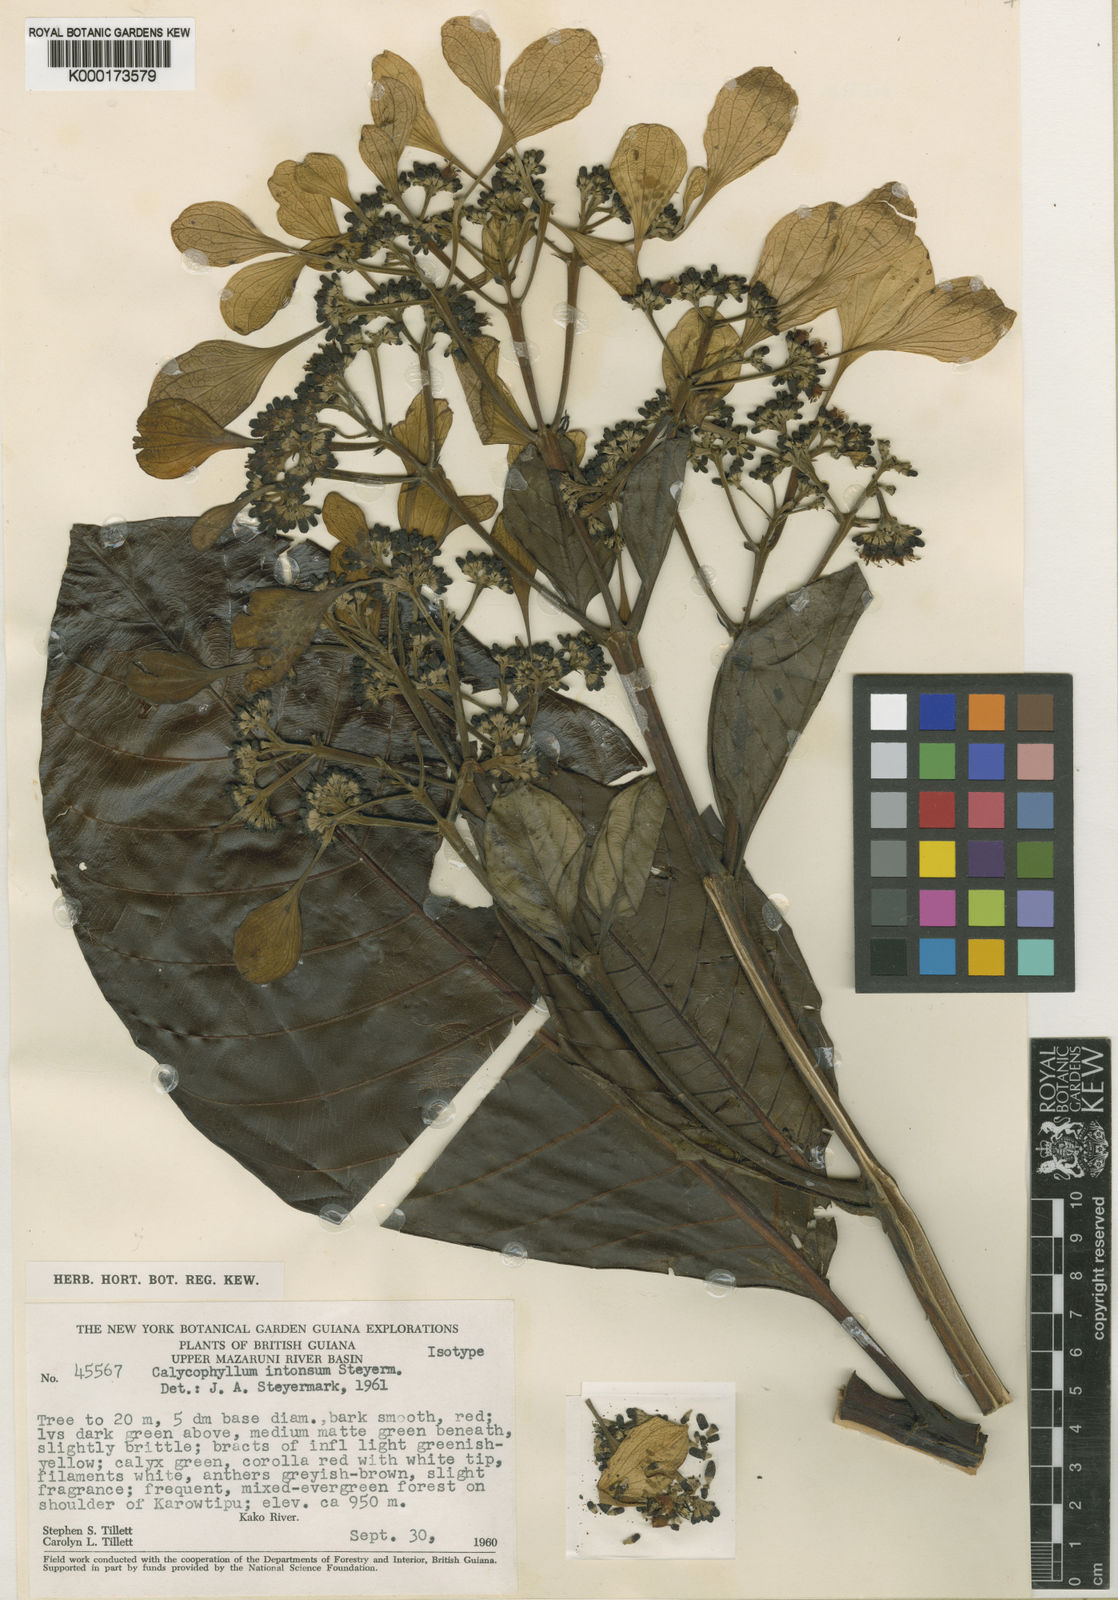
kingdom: Plantae
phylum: Tracheophyta
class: Magnoliopsida
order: Gentianales
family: Rubiaceae
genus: Calycophyllum
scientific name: Calycophyllum intonsum
